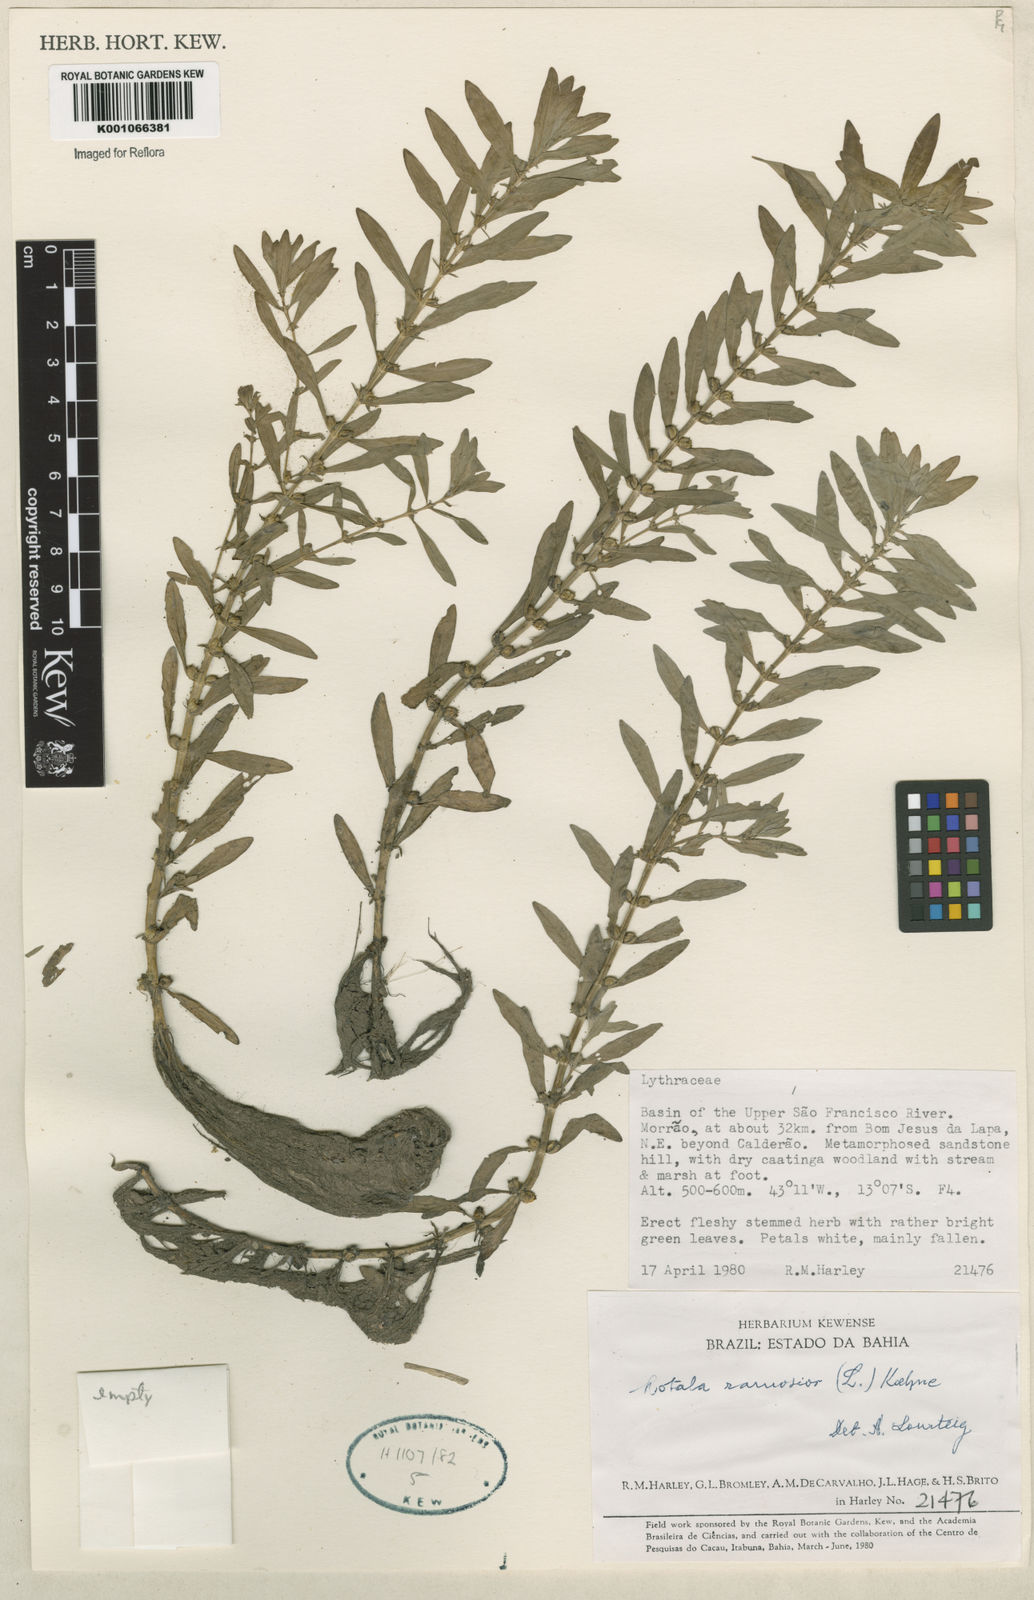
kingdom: Plantae
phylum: Tracheophyta
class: Magnoliopsida
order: Myrtales
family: Lythraceae
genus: Rotala
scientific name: Rotala ramosior
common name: Lowland rotala
